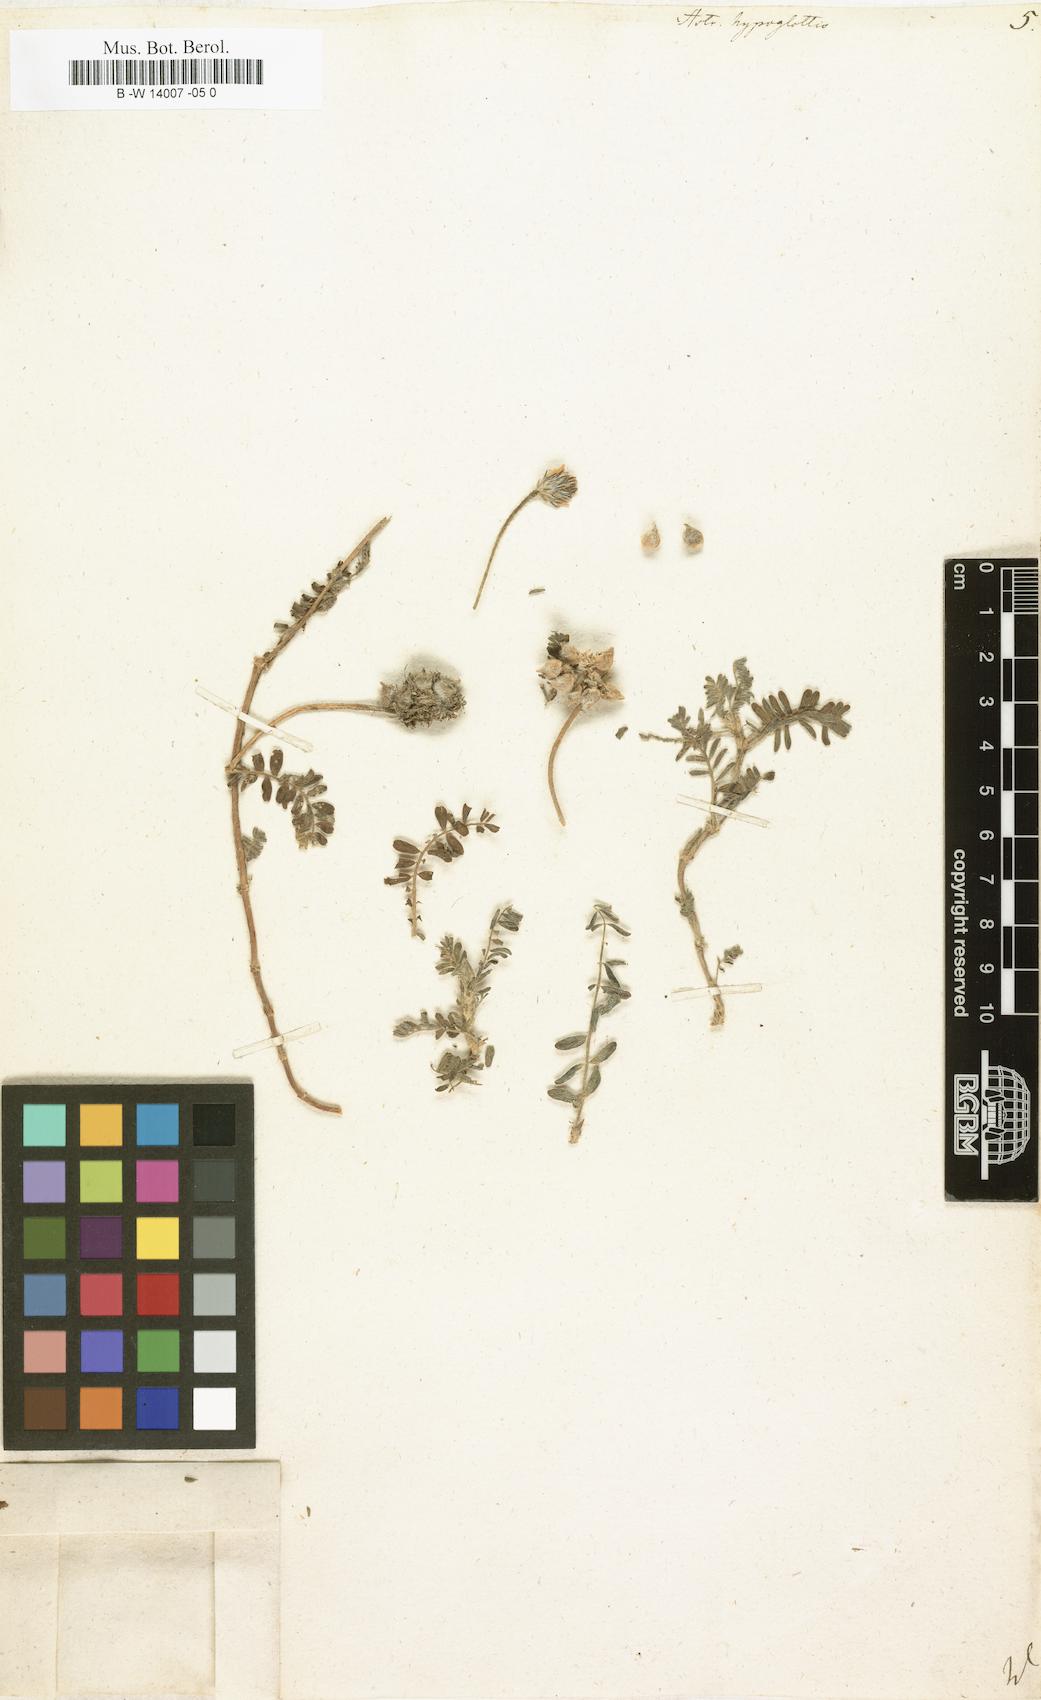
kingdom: Plantae
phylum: Tracheophyta
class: Magnoliopsida
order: Fabales
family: Fabaceae
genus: Astragalus
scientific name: Astragalus hypoglottis
